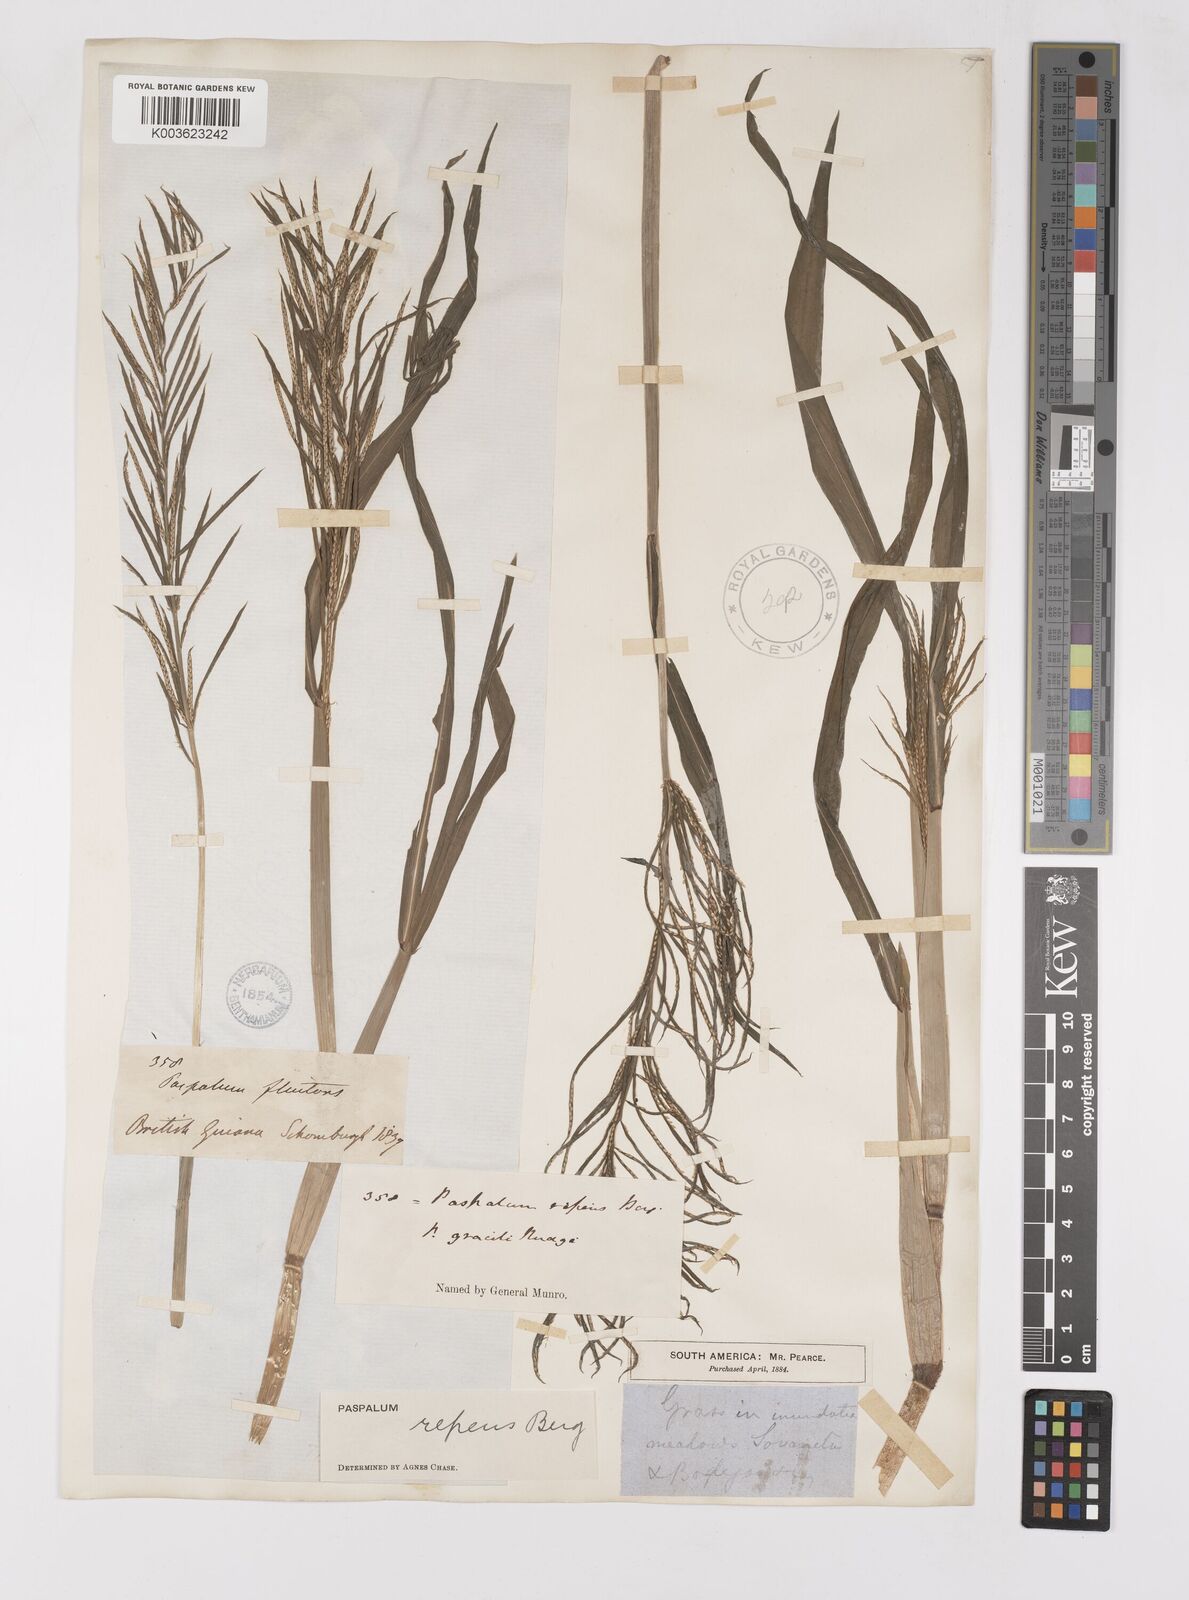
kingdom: Plantae
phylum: Tracheophyta
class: Liliopsida
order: Poales
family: Poaceae
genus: Paspalum
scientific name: Paspalum repens
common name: Water paspalum
